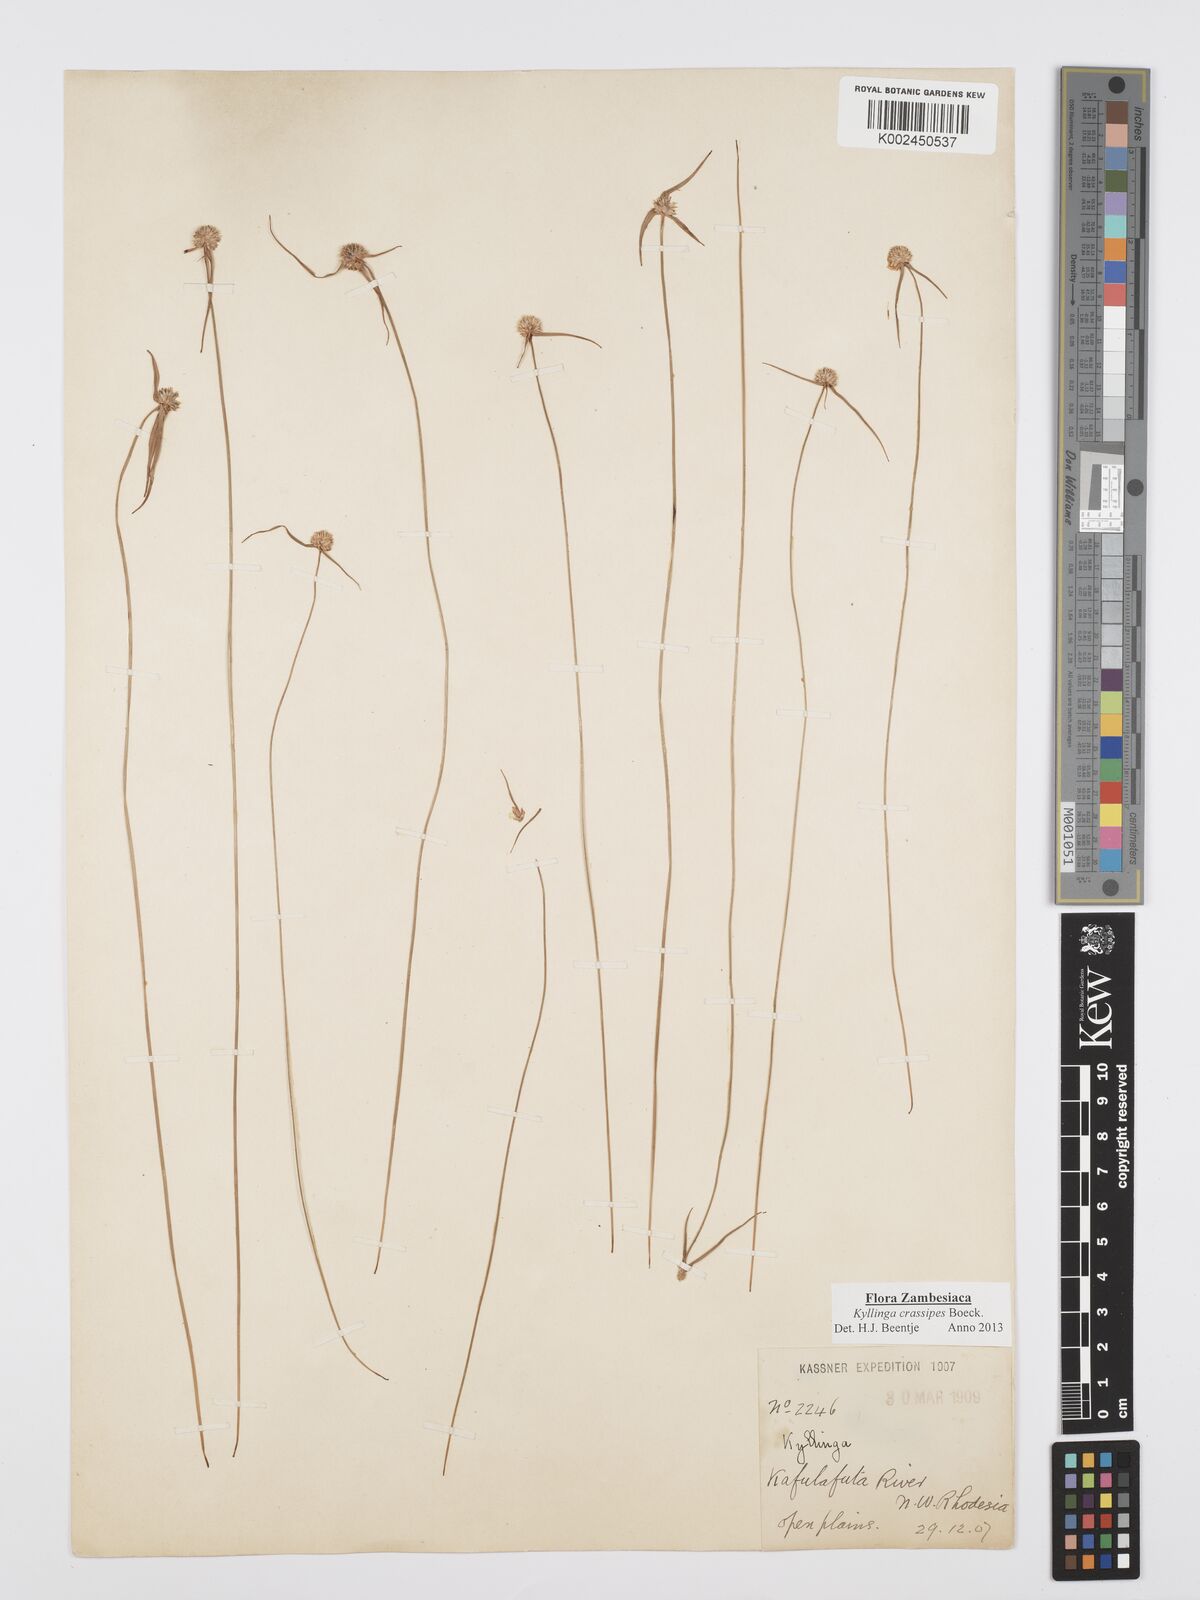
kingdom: Plantae
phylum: Tracheophyta
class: Liliopsida
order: Poales
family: Cyperaceae
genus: Cyperus
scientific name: Cyperus crassipes
